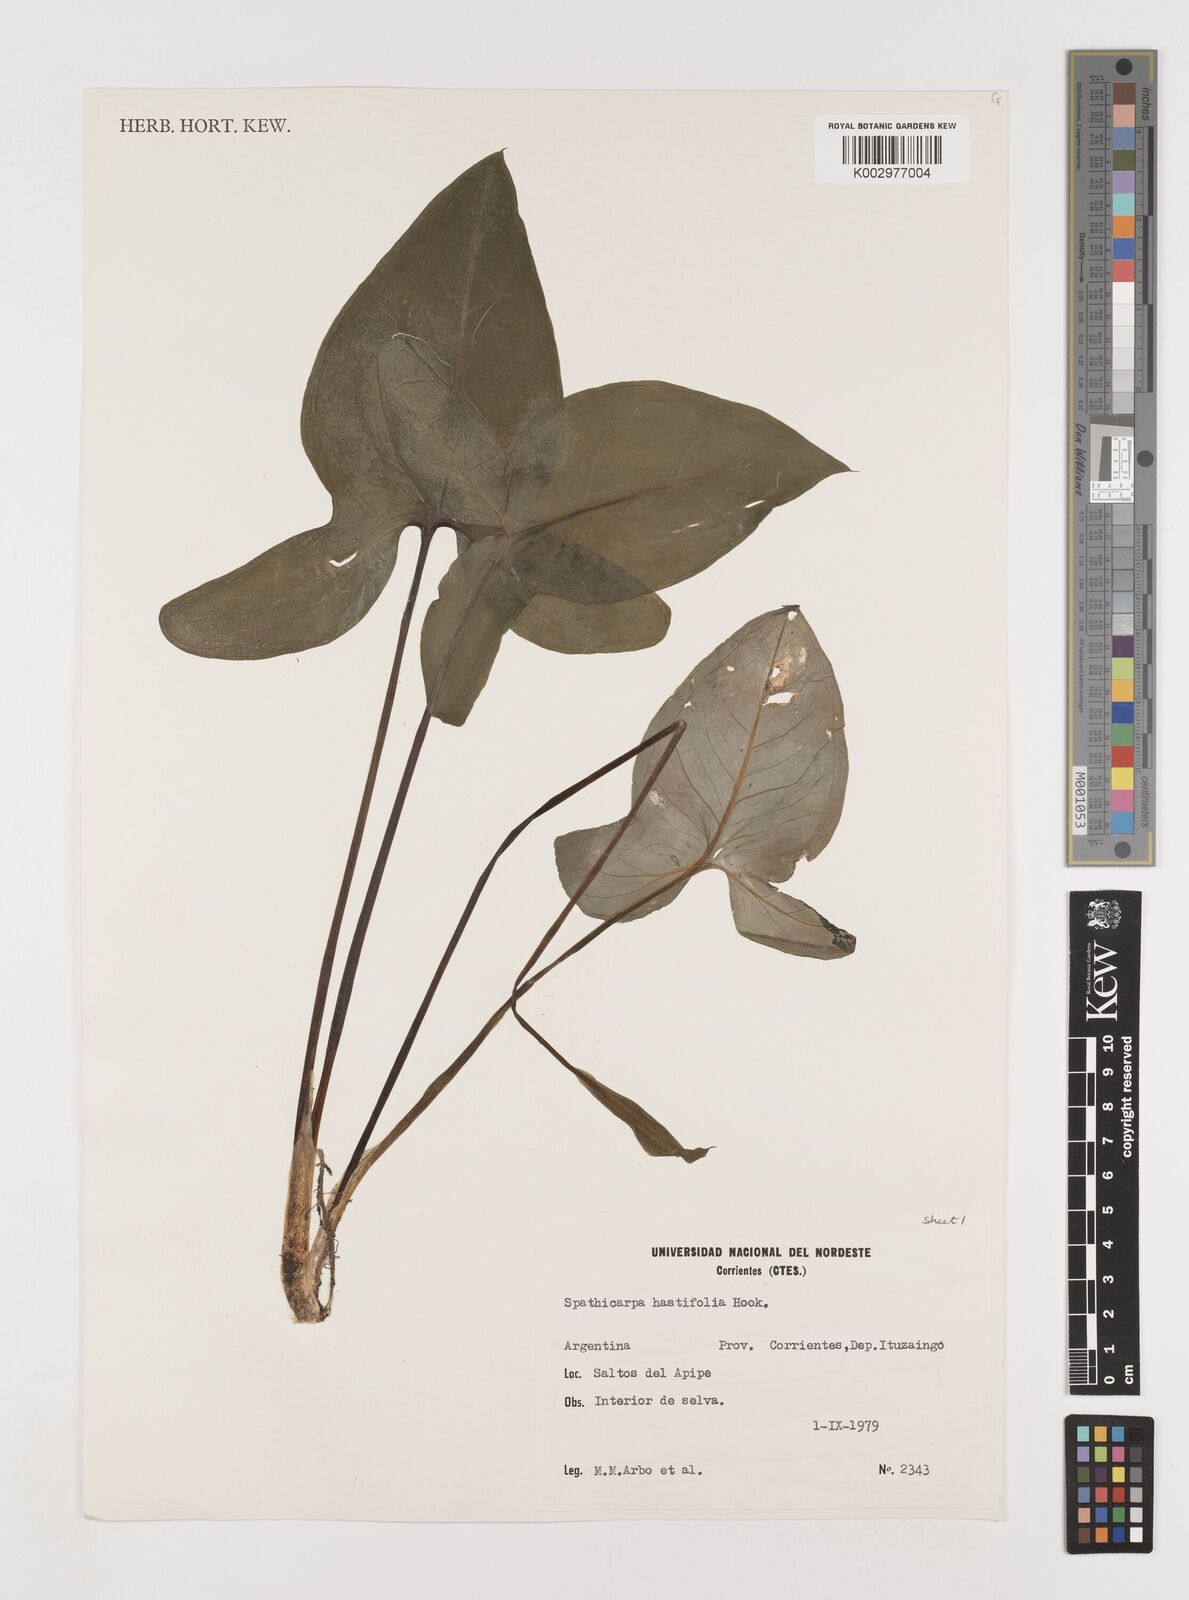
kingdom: Plantae
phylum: Tracheophyta
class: Liliopsida
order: Alismatales
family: Araceae
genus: Spathicarpa
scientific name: Spathicarpa hastifolia
